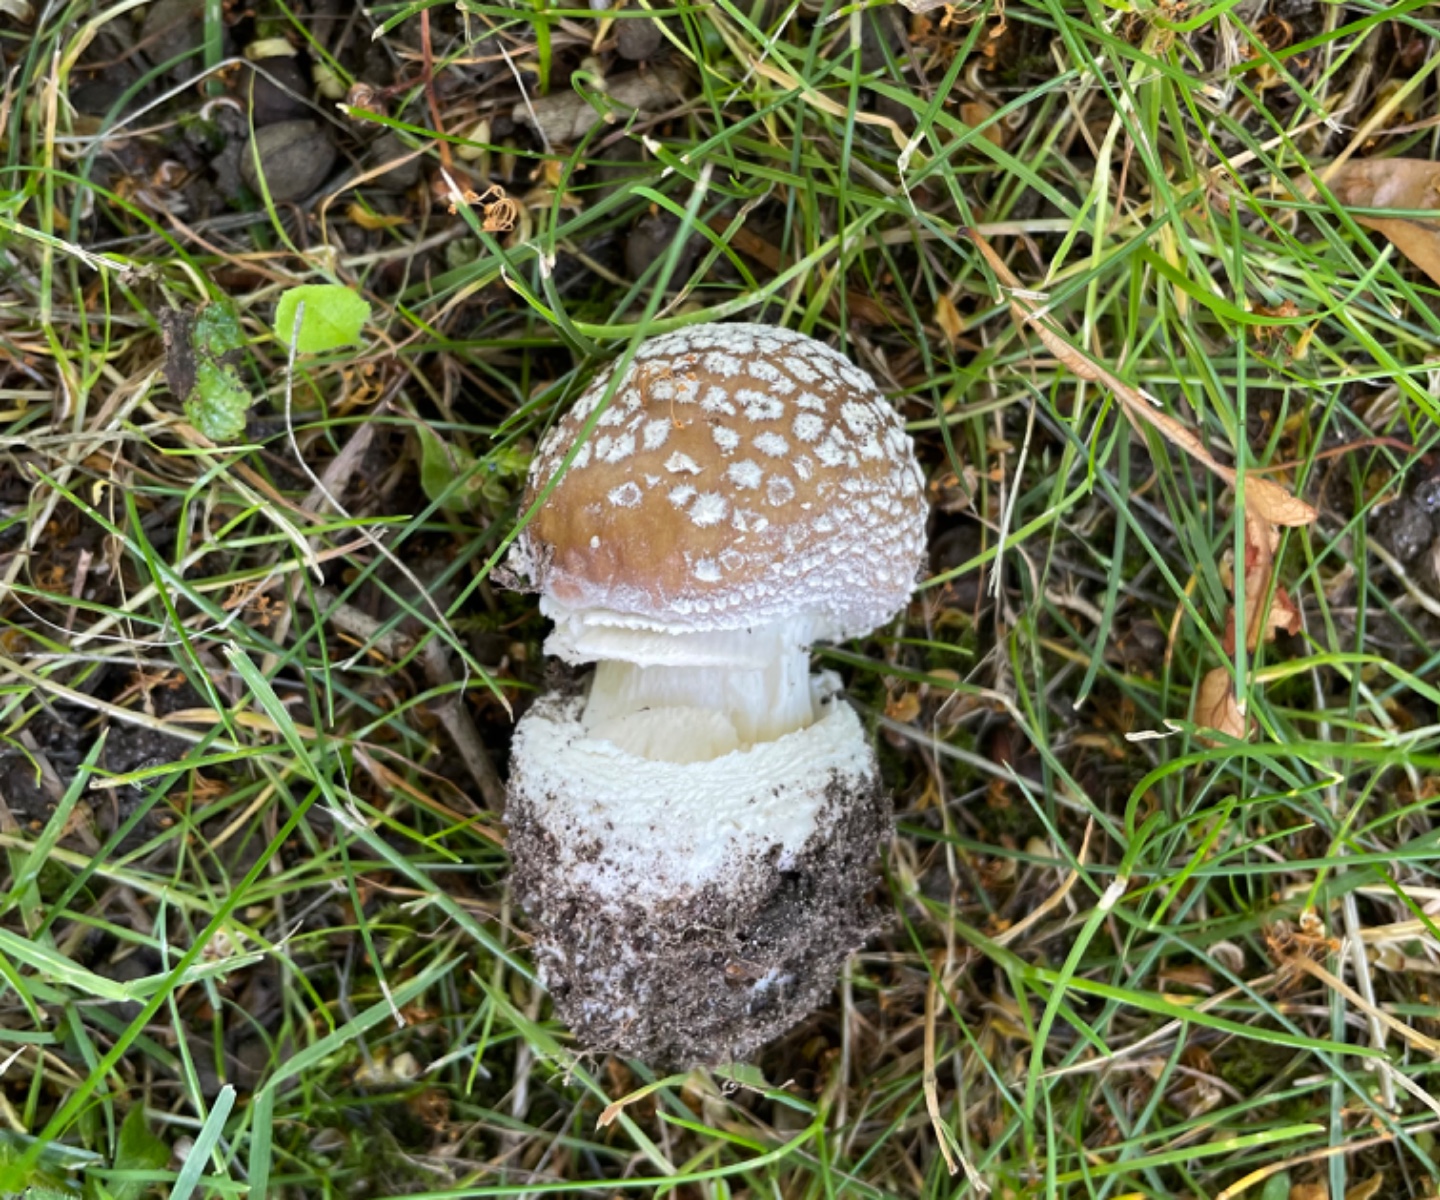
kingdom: Fungi
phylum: Basidiomycota
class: Agaricomycetes
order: Agaricales
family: Amanitaceae
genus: Amanita
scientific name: Amanita pantherina
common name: panter-fluesvamp
